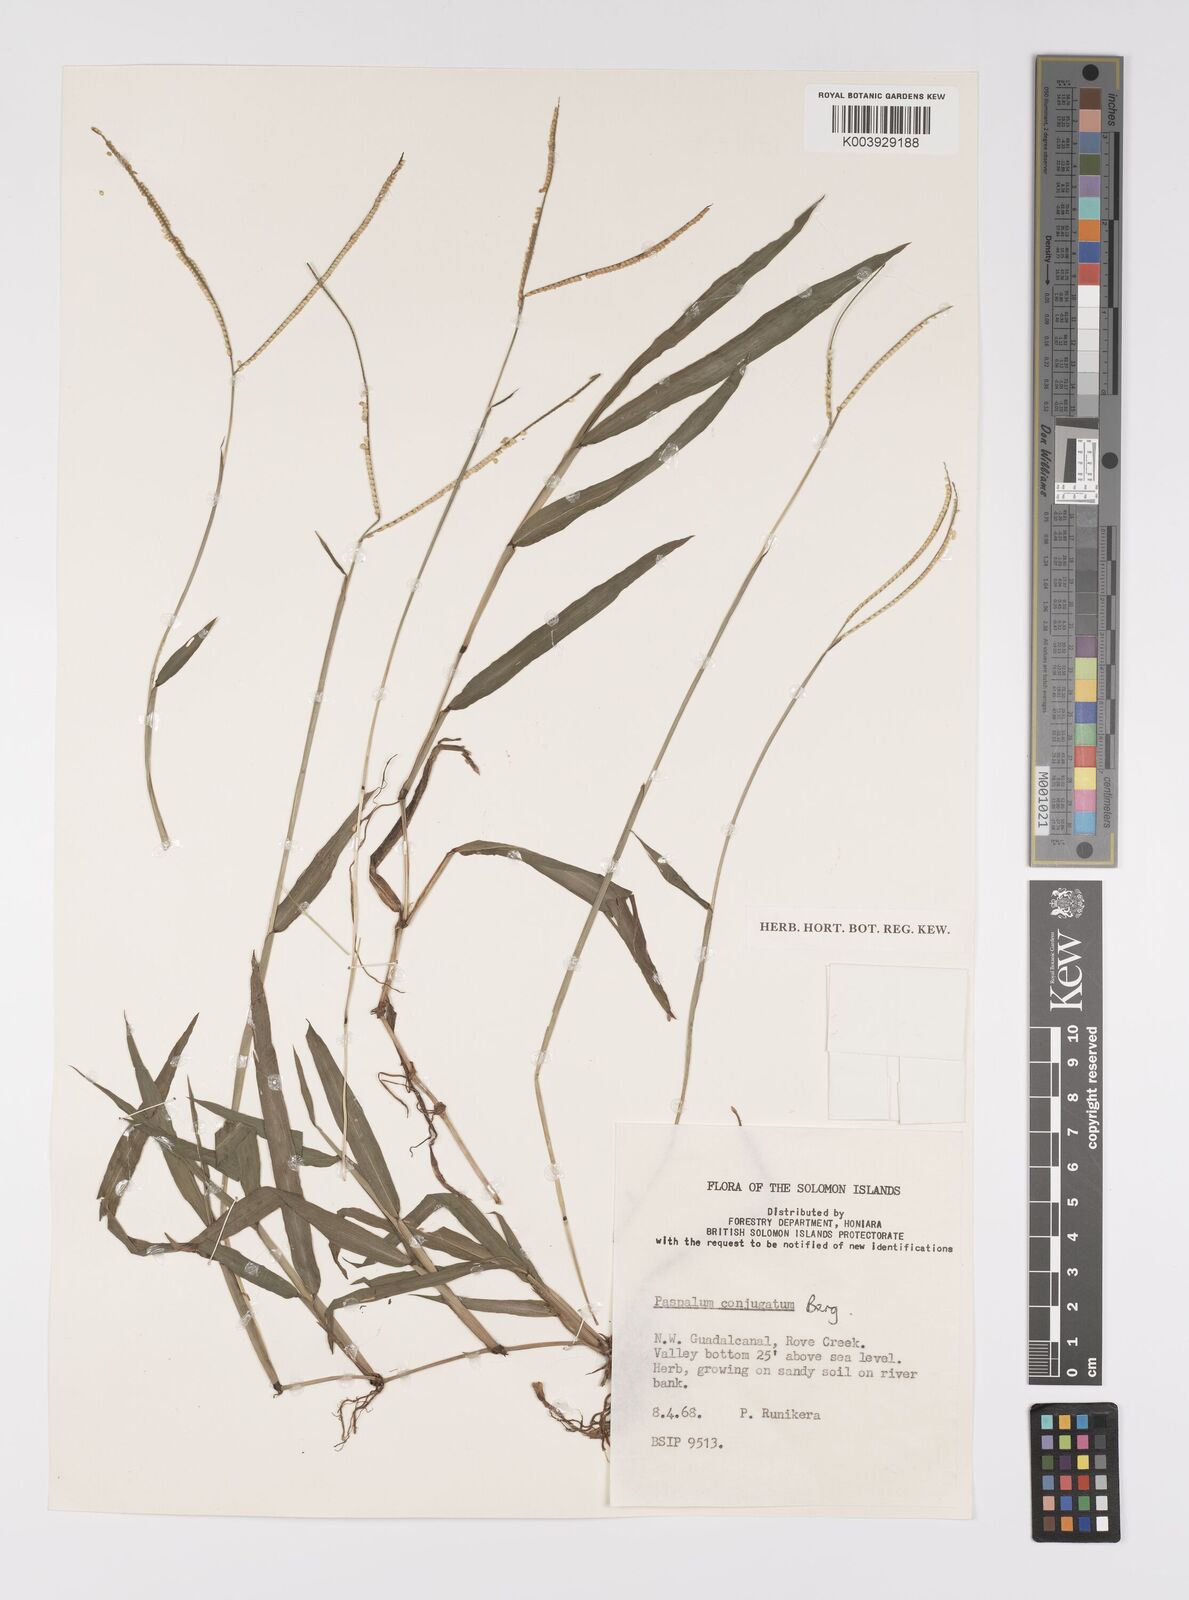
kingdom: Plantae
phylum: Tracheophyta
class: Liliopsida
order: Poales
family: Poaceae
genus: Paspalum
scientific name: Paspalum conjugatum
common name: Hilograss
